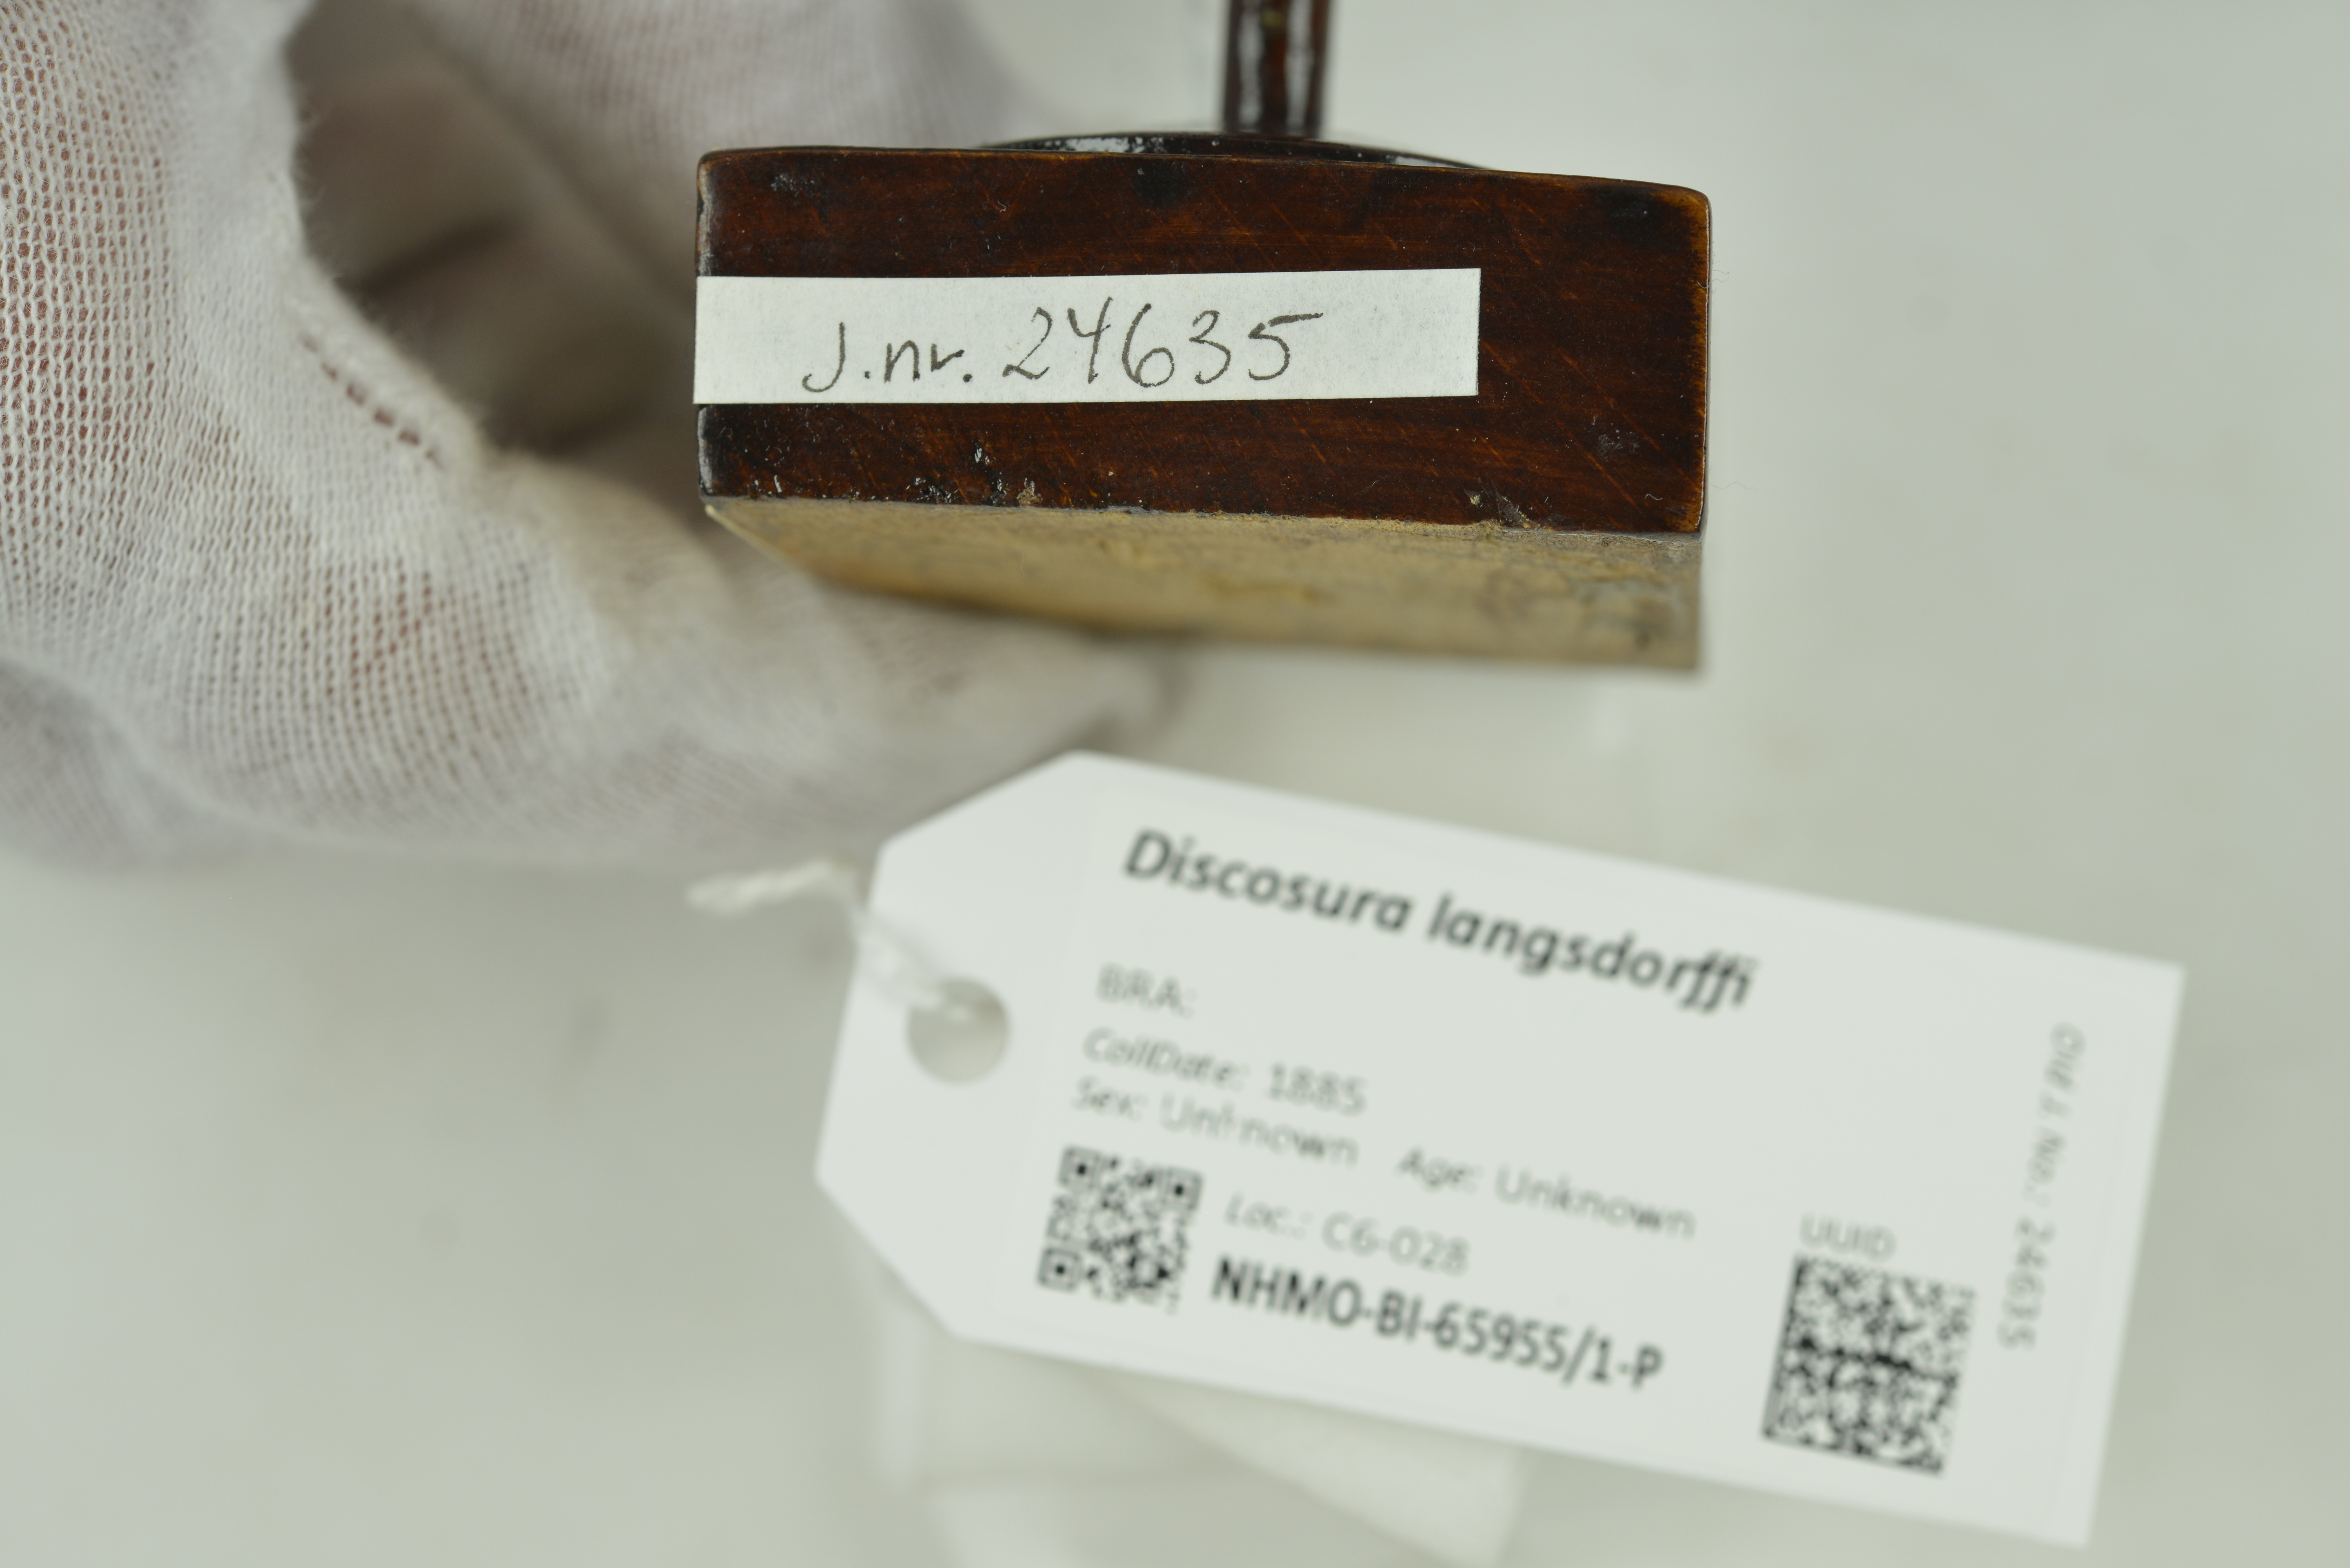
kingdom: Animalia
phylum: Chordata
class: Aves
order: Apodiformes
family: Trochilidae
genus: Discosura
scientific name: Discosura langsdorffi
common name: Black-bellied thorntail
